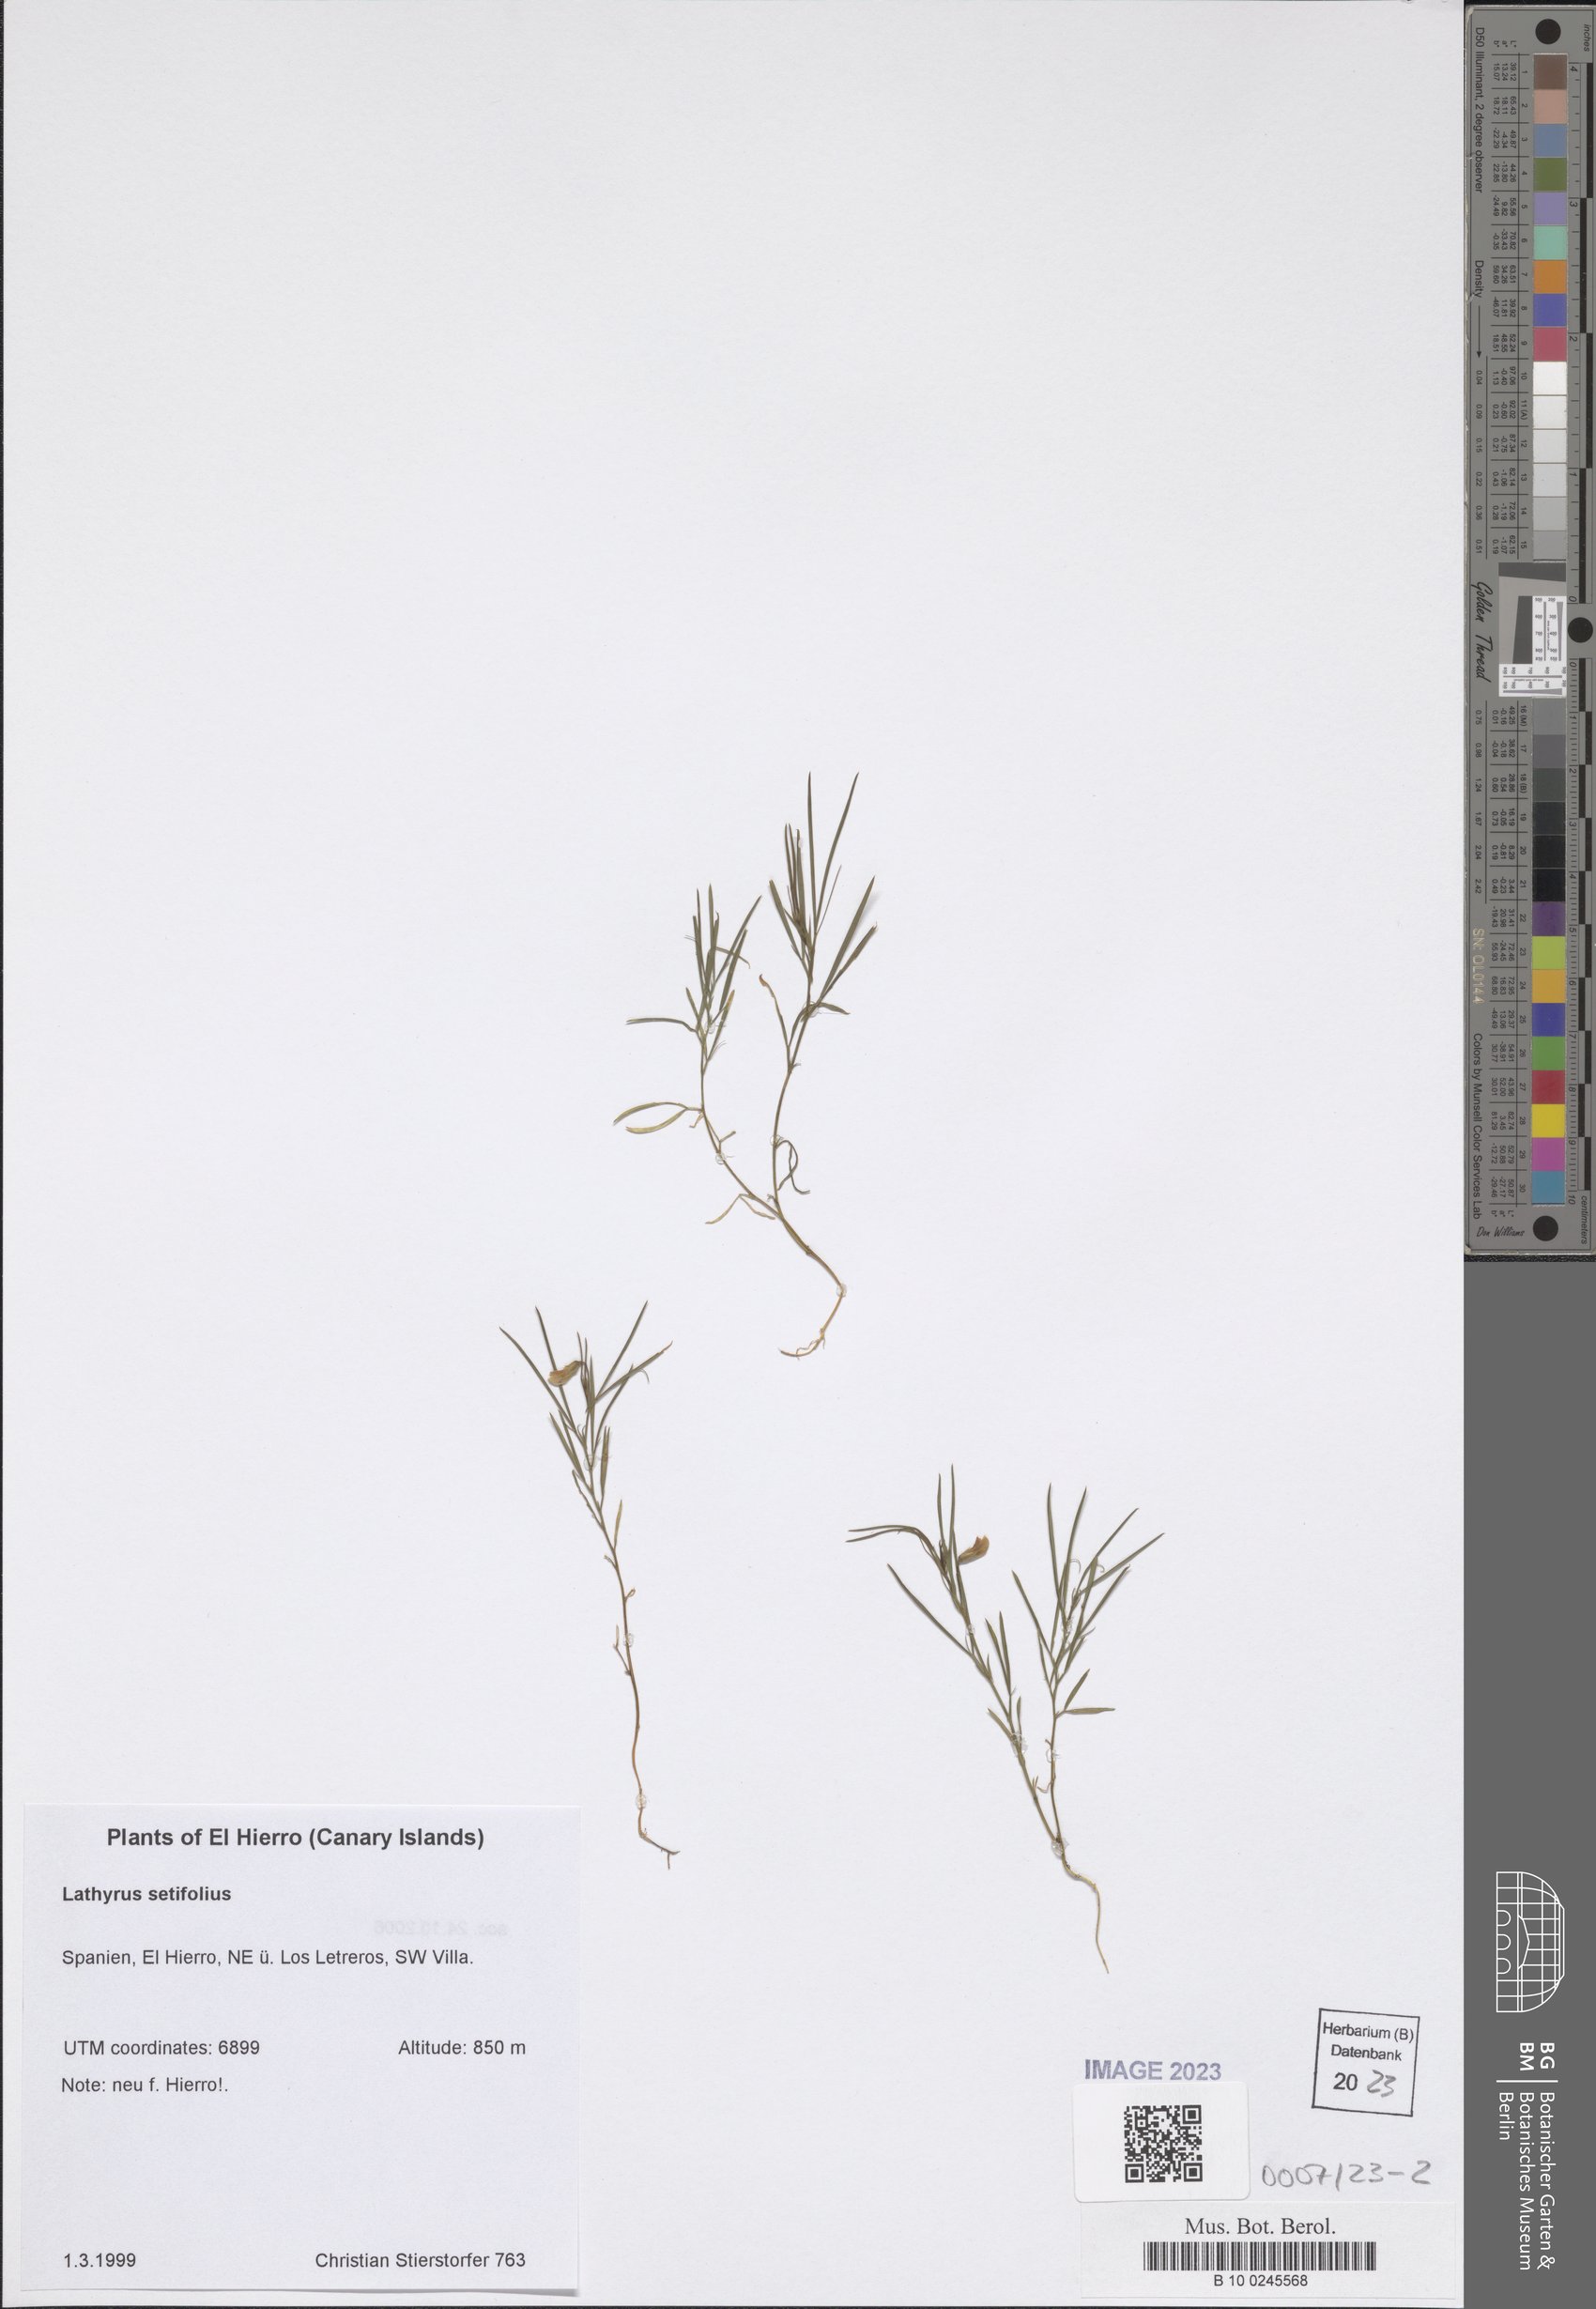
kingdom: Plantae
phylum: Tracheophyta
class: Magnoliopsida
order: Fabales
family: Fabaceae
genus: Lathyrus
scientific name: Lathyrus setifolius
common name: Brown vetchling
